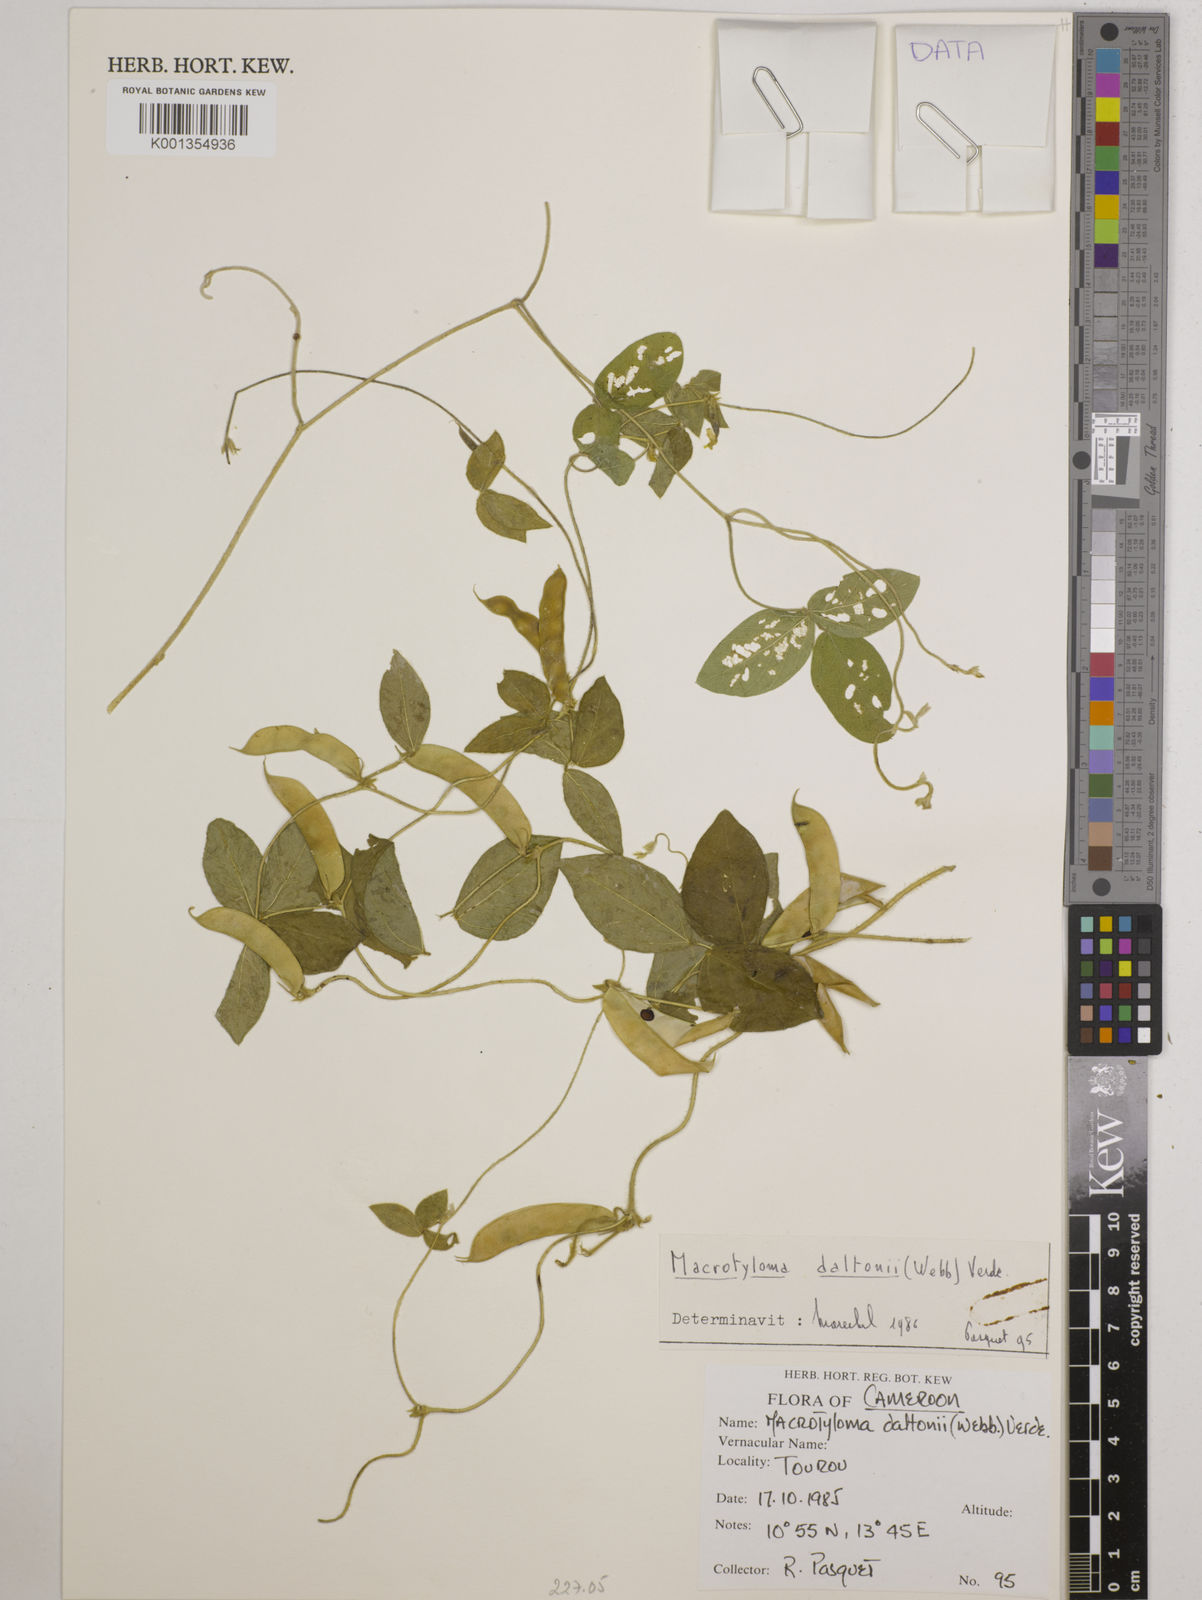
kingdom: Plantae
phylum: Tracheophyta
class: Magnoliopsida
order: Fabales
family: Fabaceae
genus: Macrotyloma
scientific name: Macrotyloma daltonii
